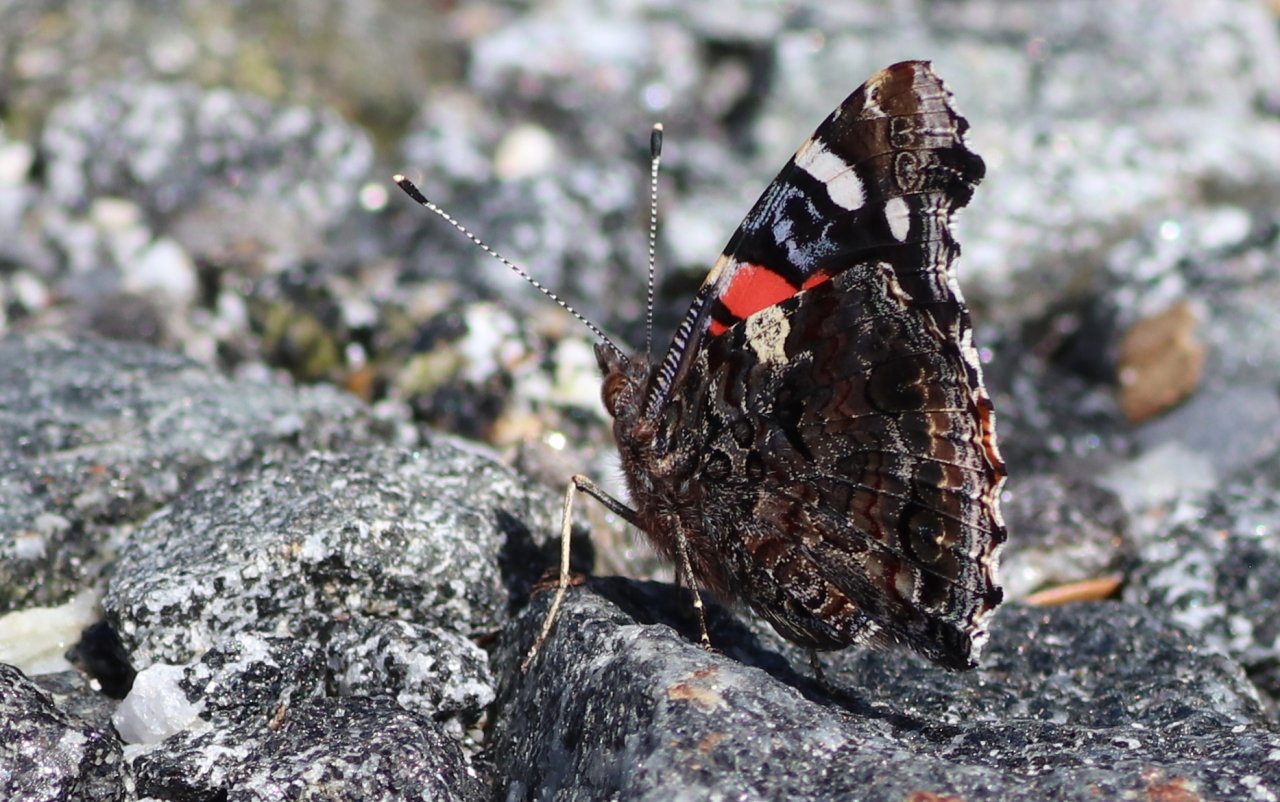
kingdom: Animalia
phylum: Arthropoda
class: Insecta
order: Lepidoptera
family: Nymphalidae
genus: Vanessa
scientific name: Vanessa atalanta
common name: Red Admiral
